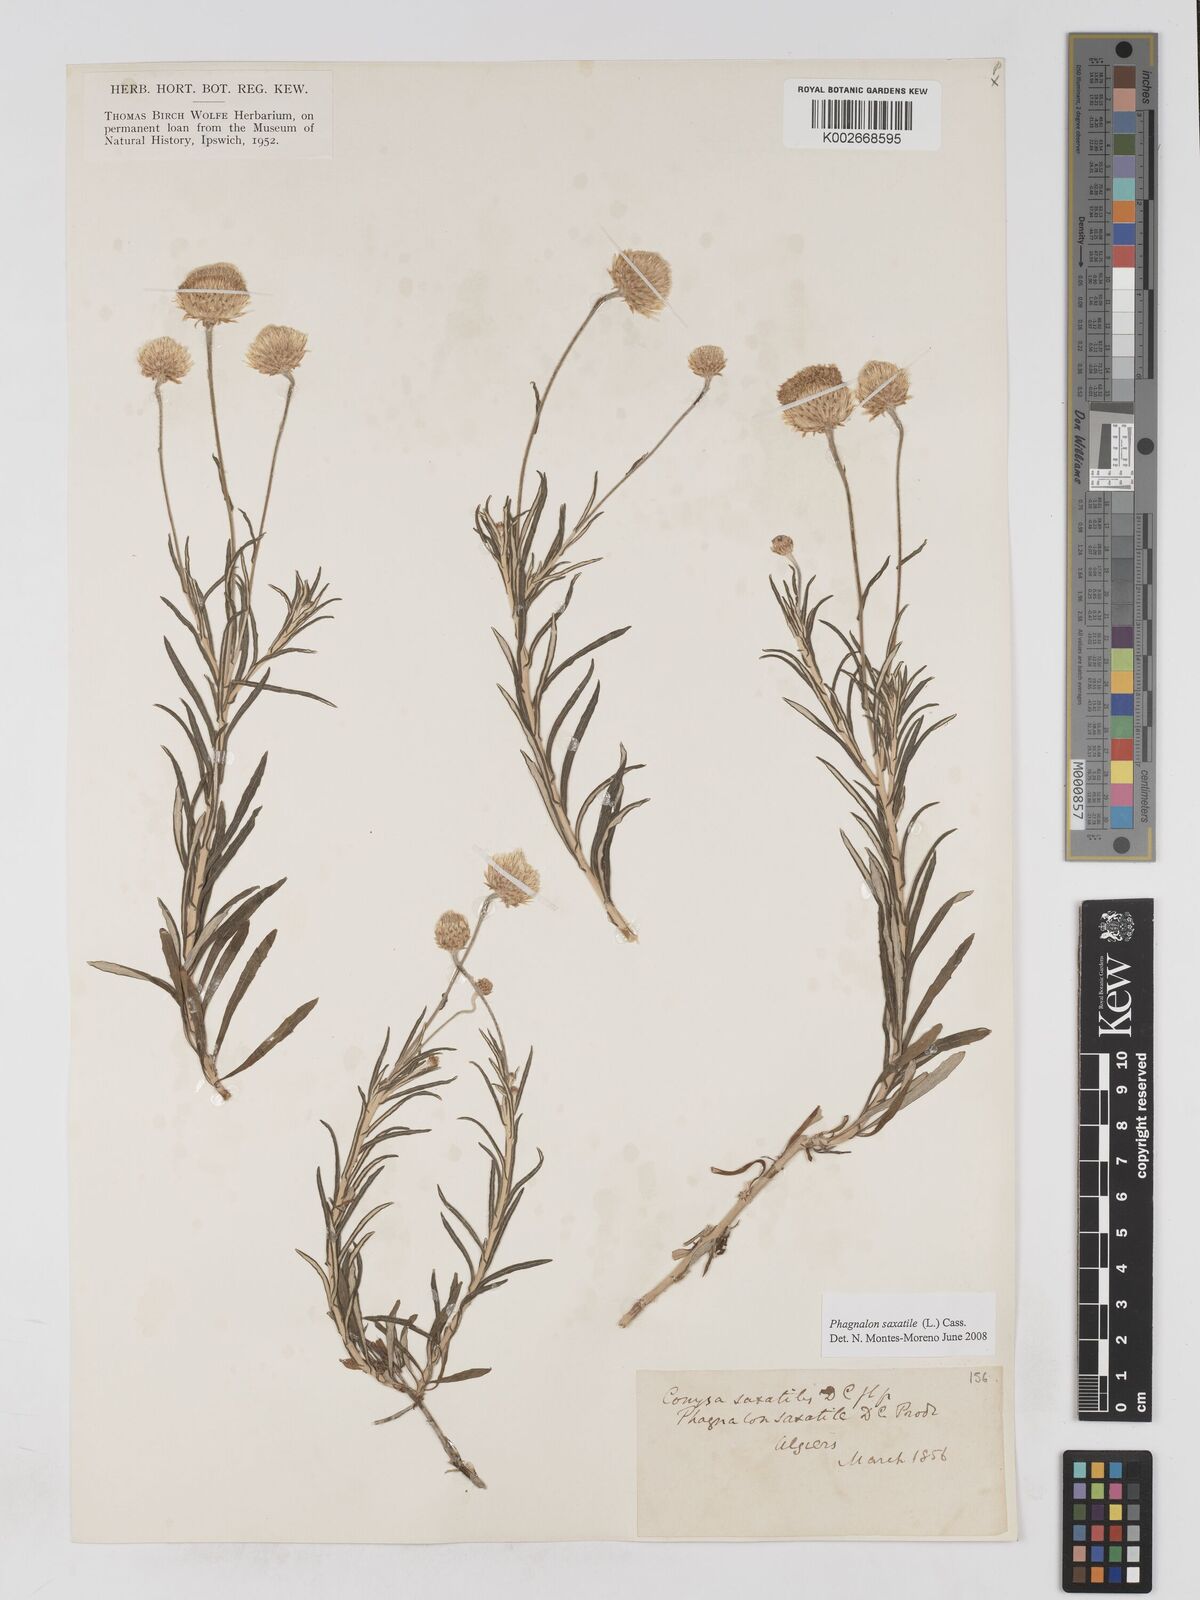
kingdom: Plantae
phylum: Tracheophyta
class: Magnoliopsida
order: Asterales
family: Asteraceae
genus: Phagnalon
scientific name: Phagnalon saxatile
